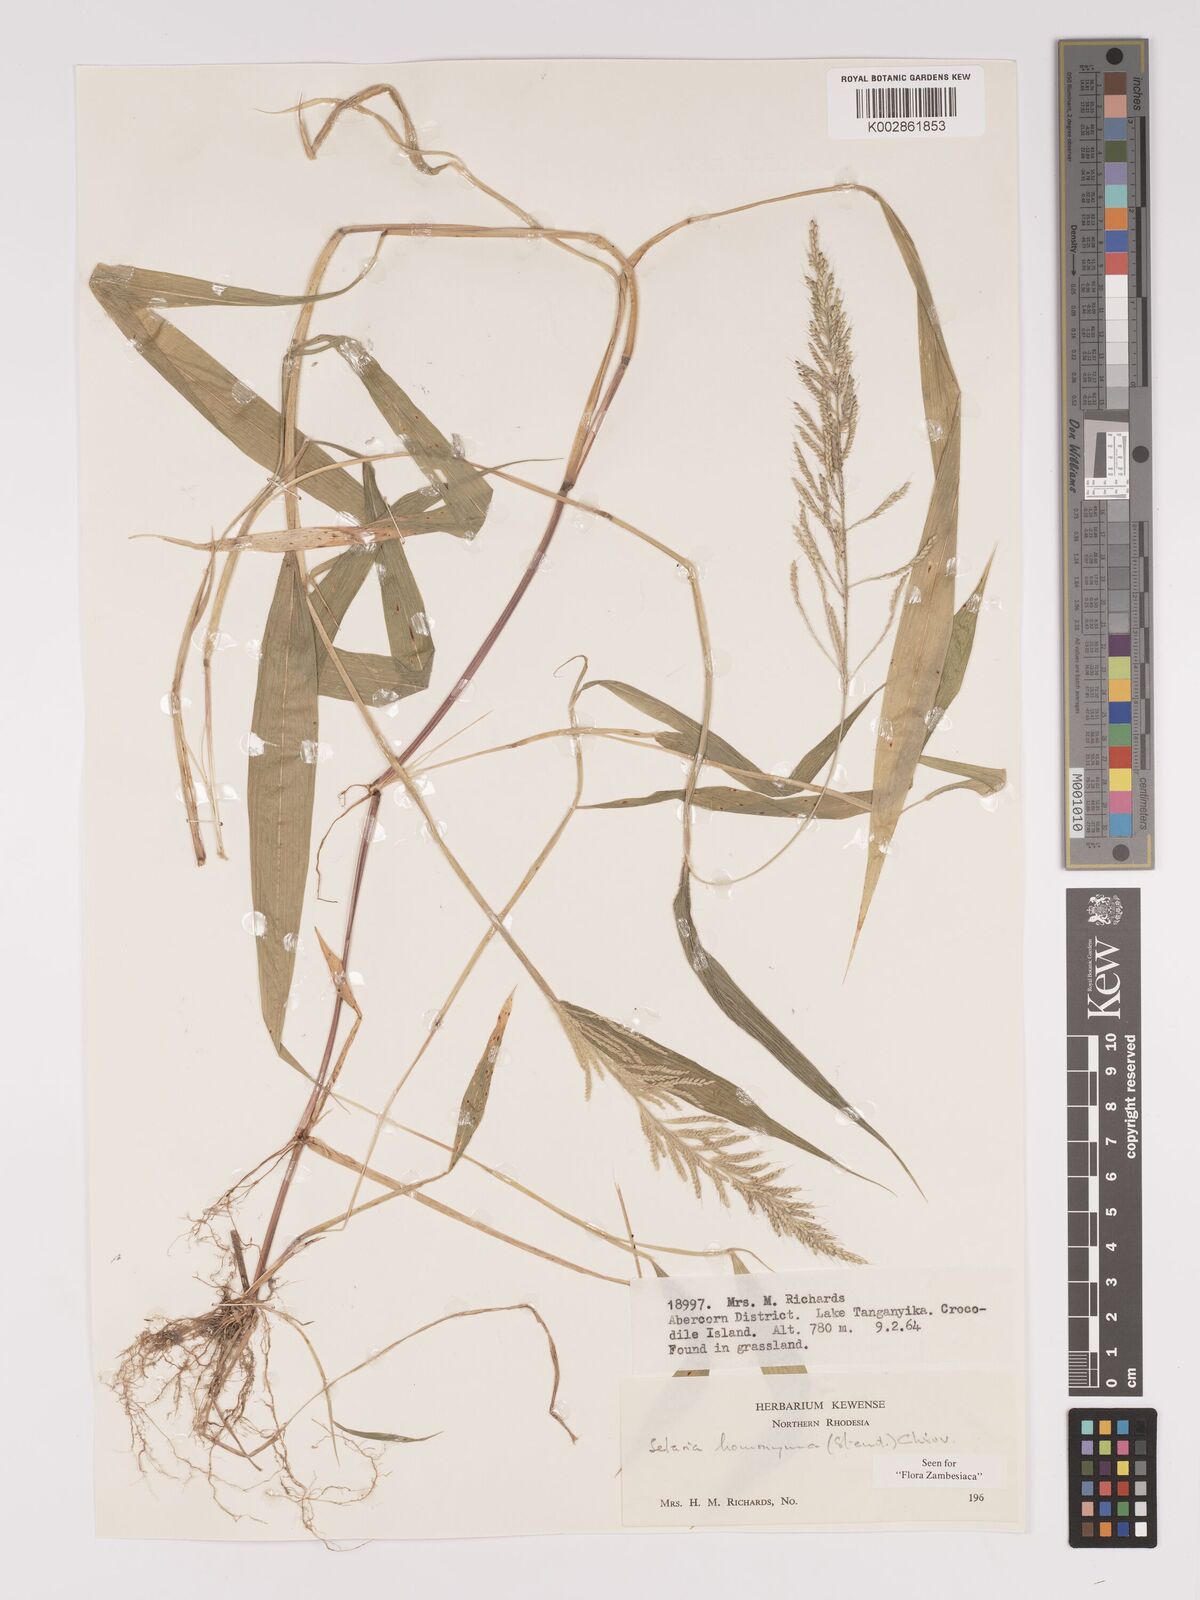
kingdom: Plantae
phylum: Tracheophyta
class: Liliopsida
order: Poales
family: Poaceae
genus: Setaria
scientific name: Setaria homonyma
